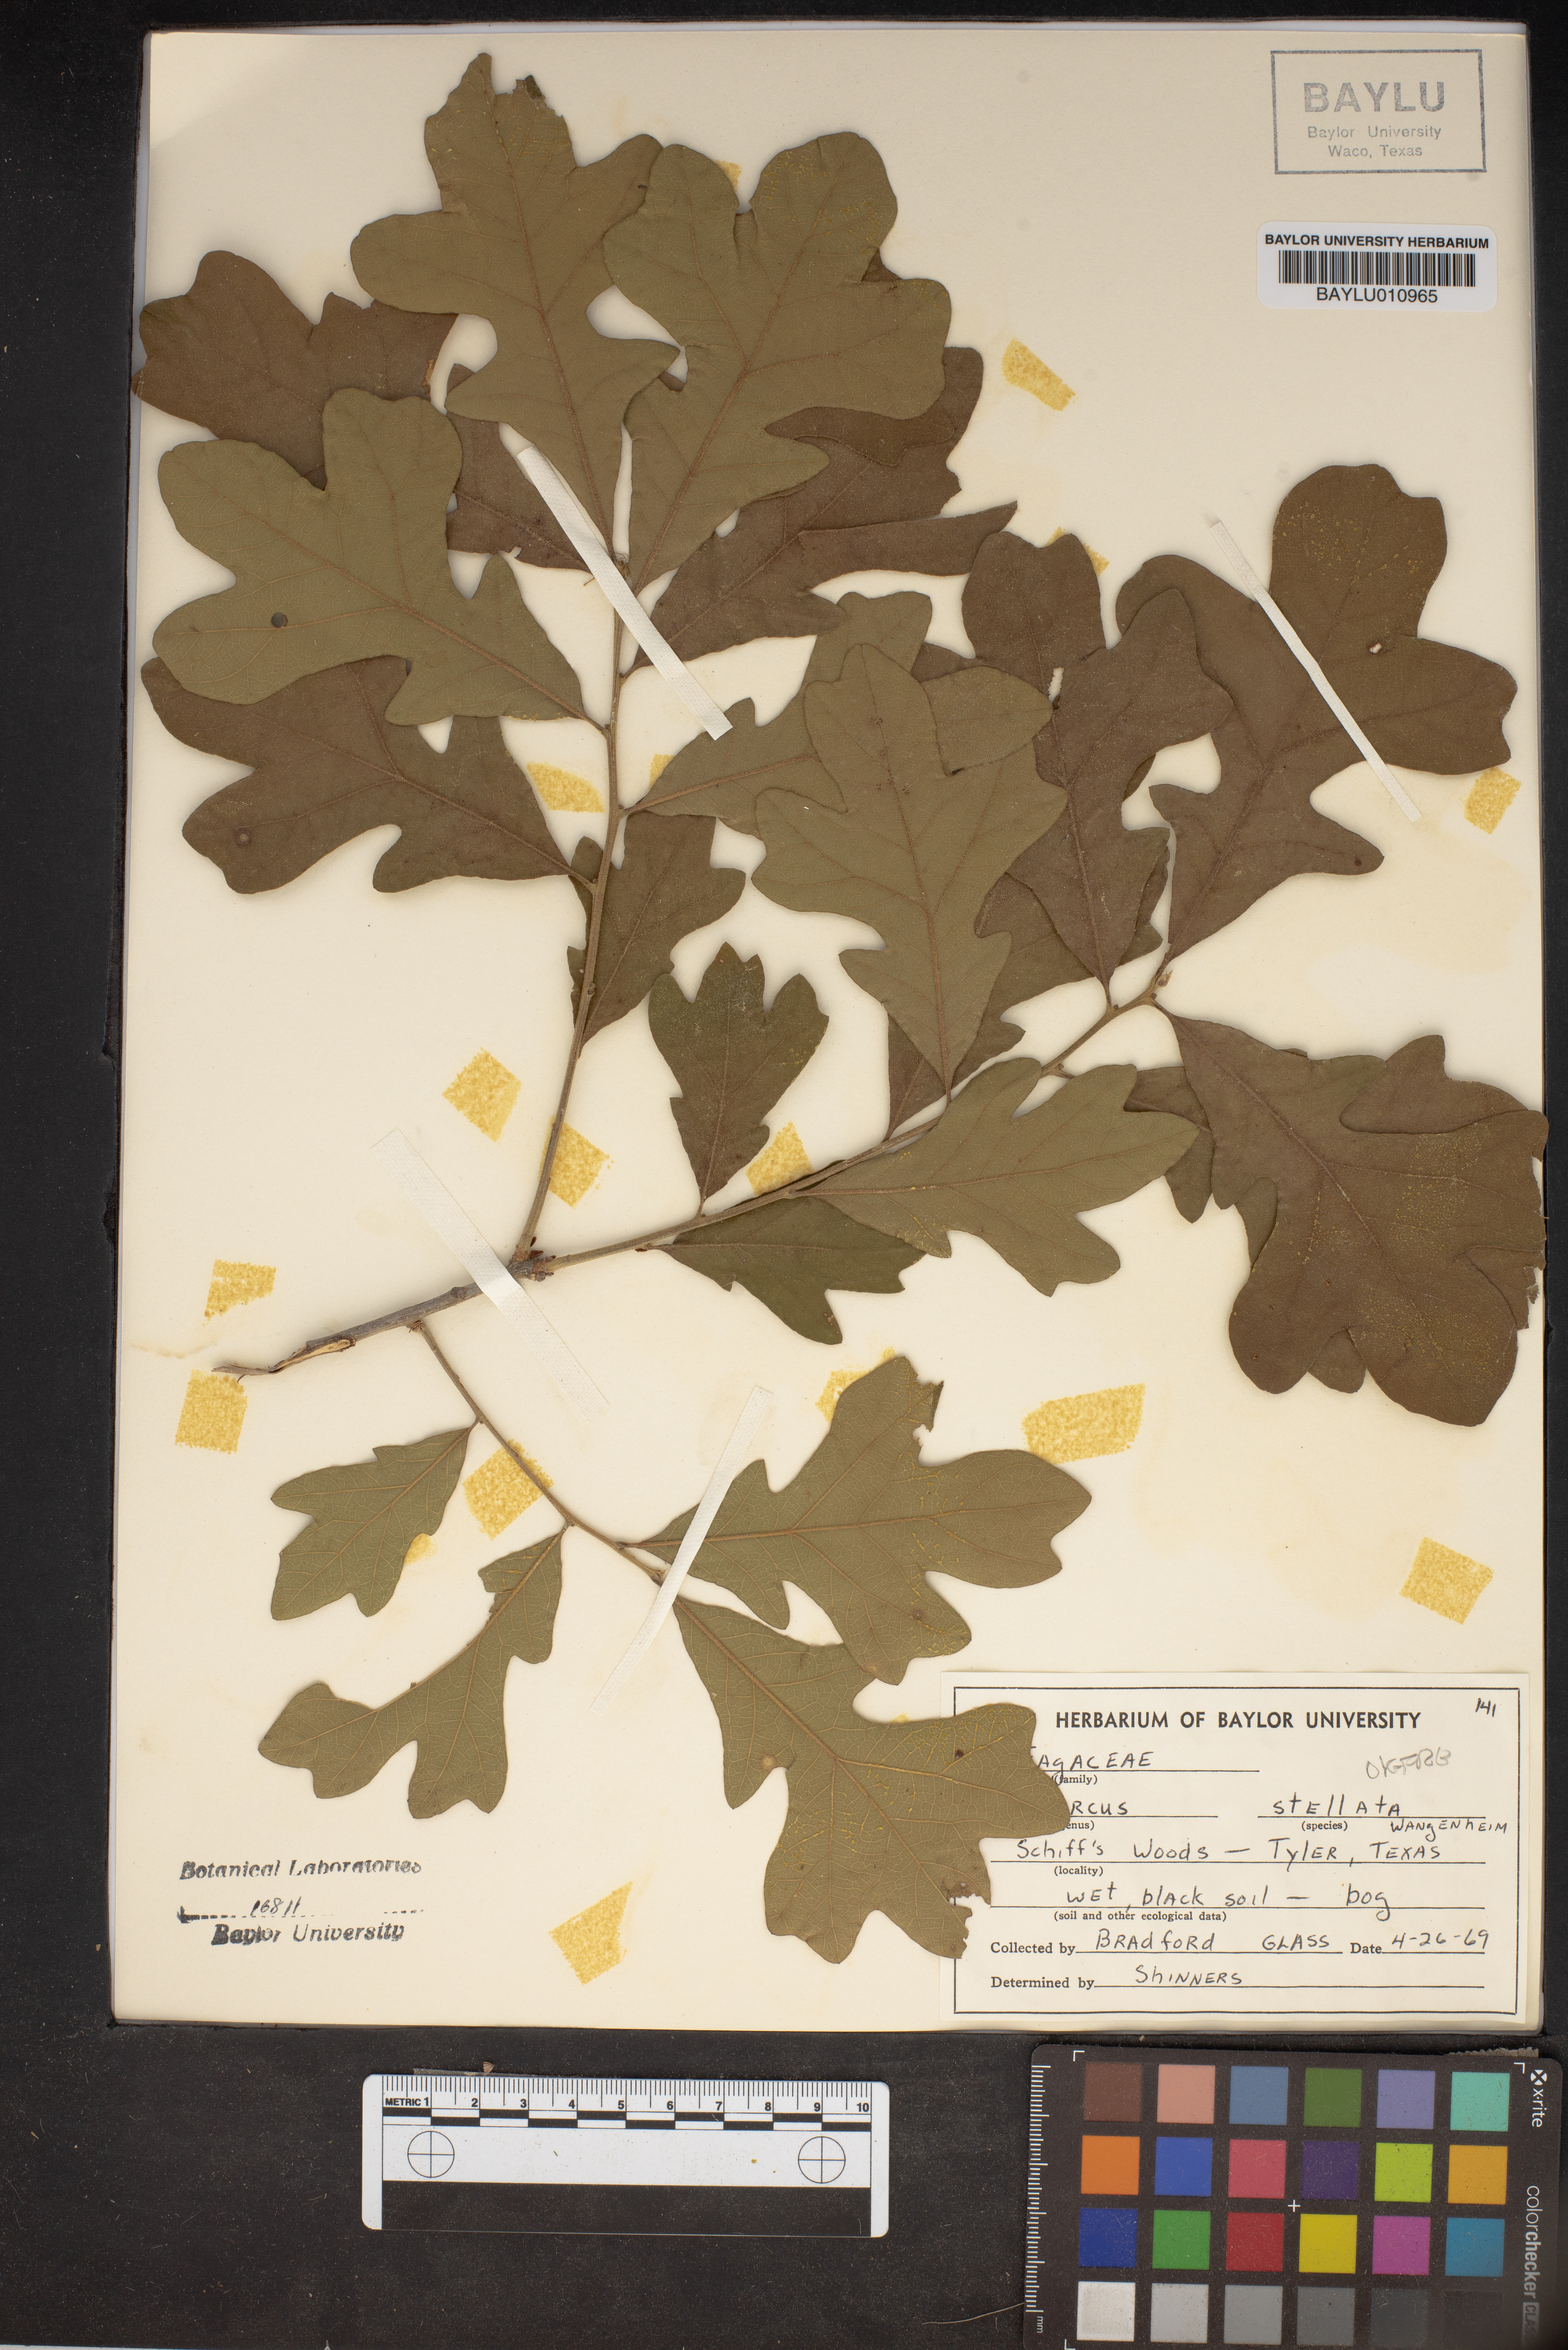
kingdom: Plantae
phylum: Tracheophyta
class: Magnoliopsida
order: Fagales
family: Fagaceae
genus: Quercus
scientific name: Quercus stellata
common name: Post oak
